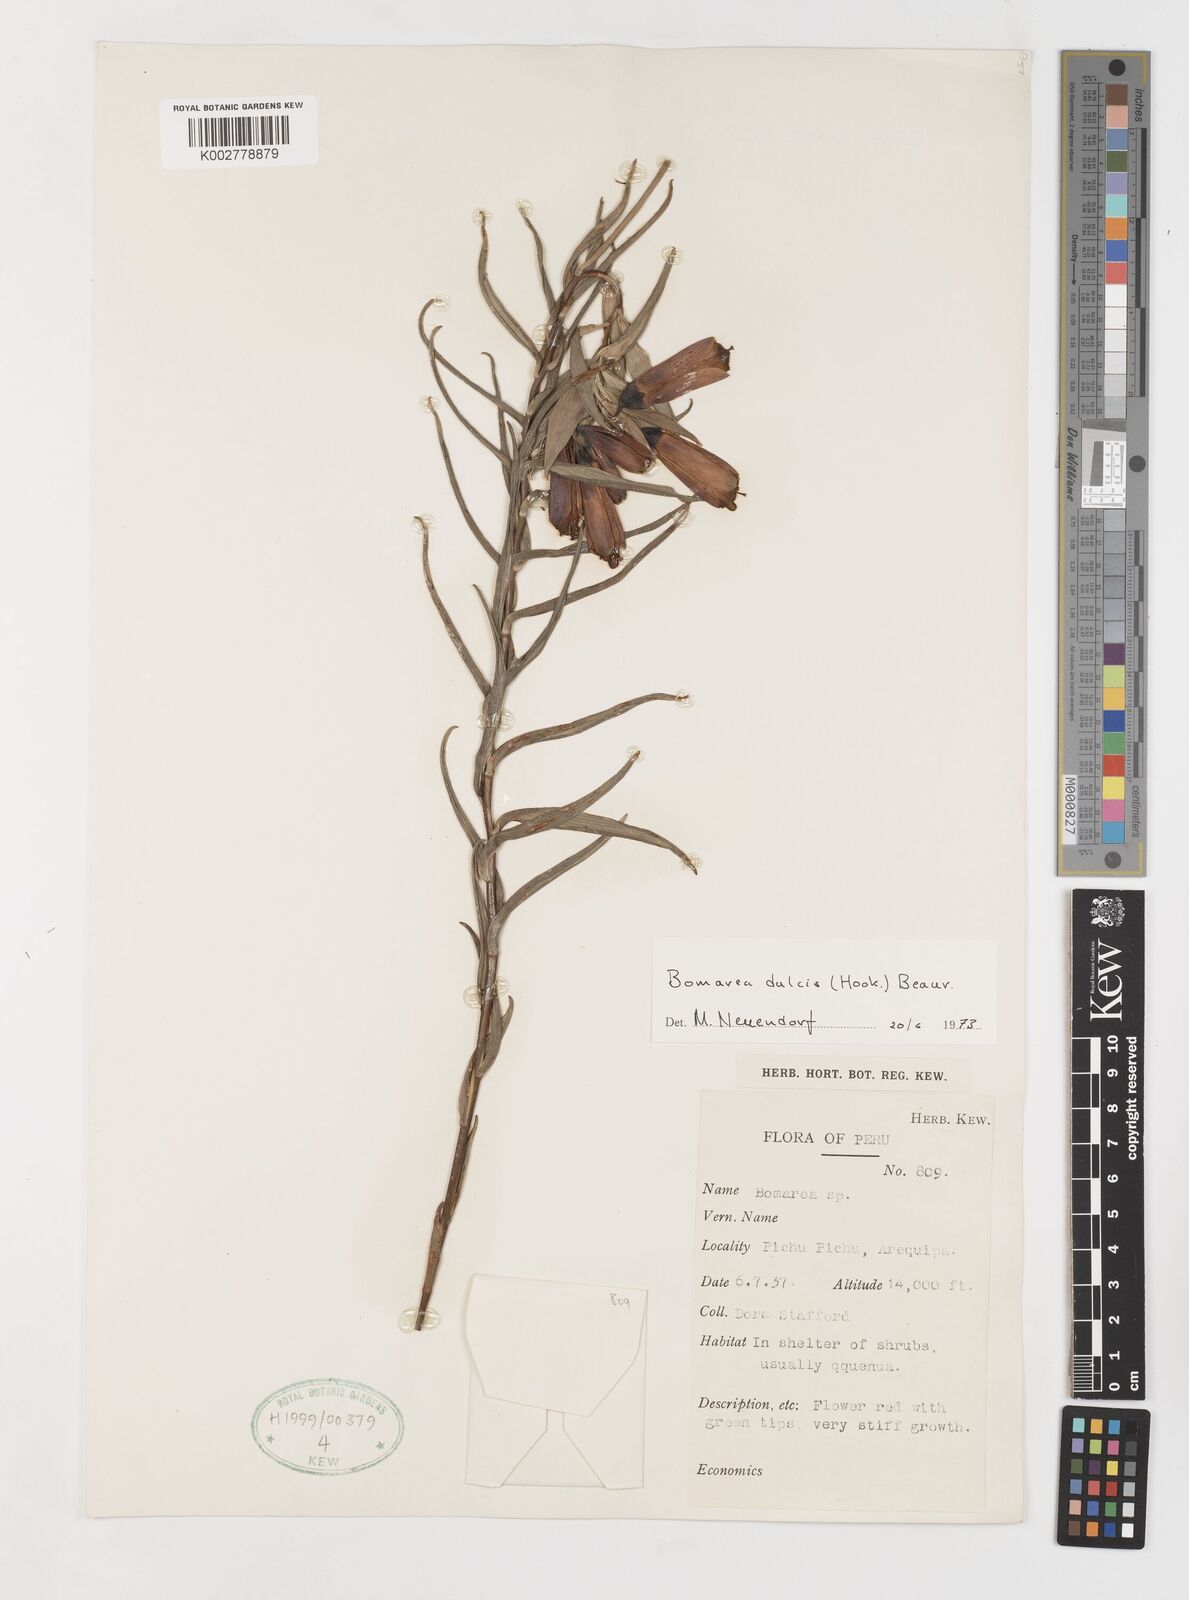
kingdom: Plantae
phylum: Tracheophyta
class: Liliopsida
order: Liliales
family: Alstroemeriaceae
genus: Bomarea
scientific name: Bomarea dulcis
